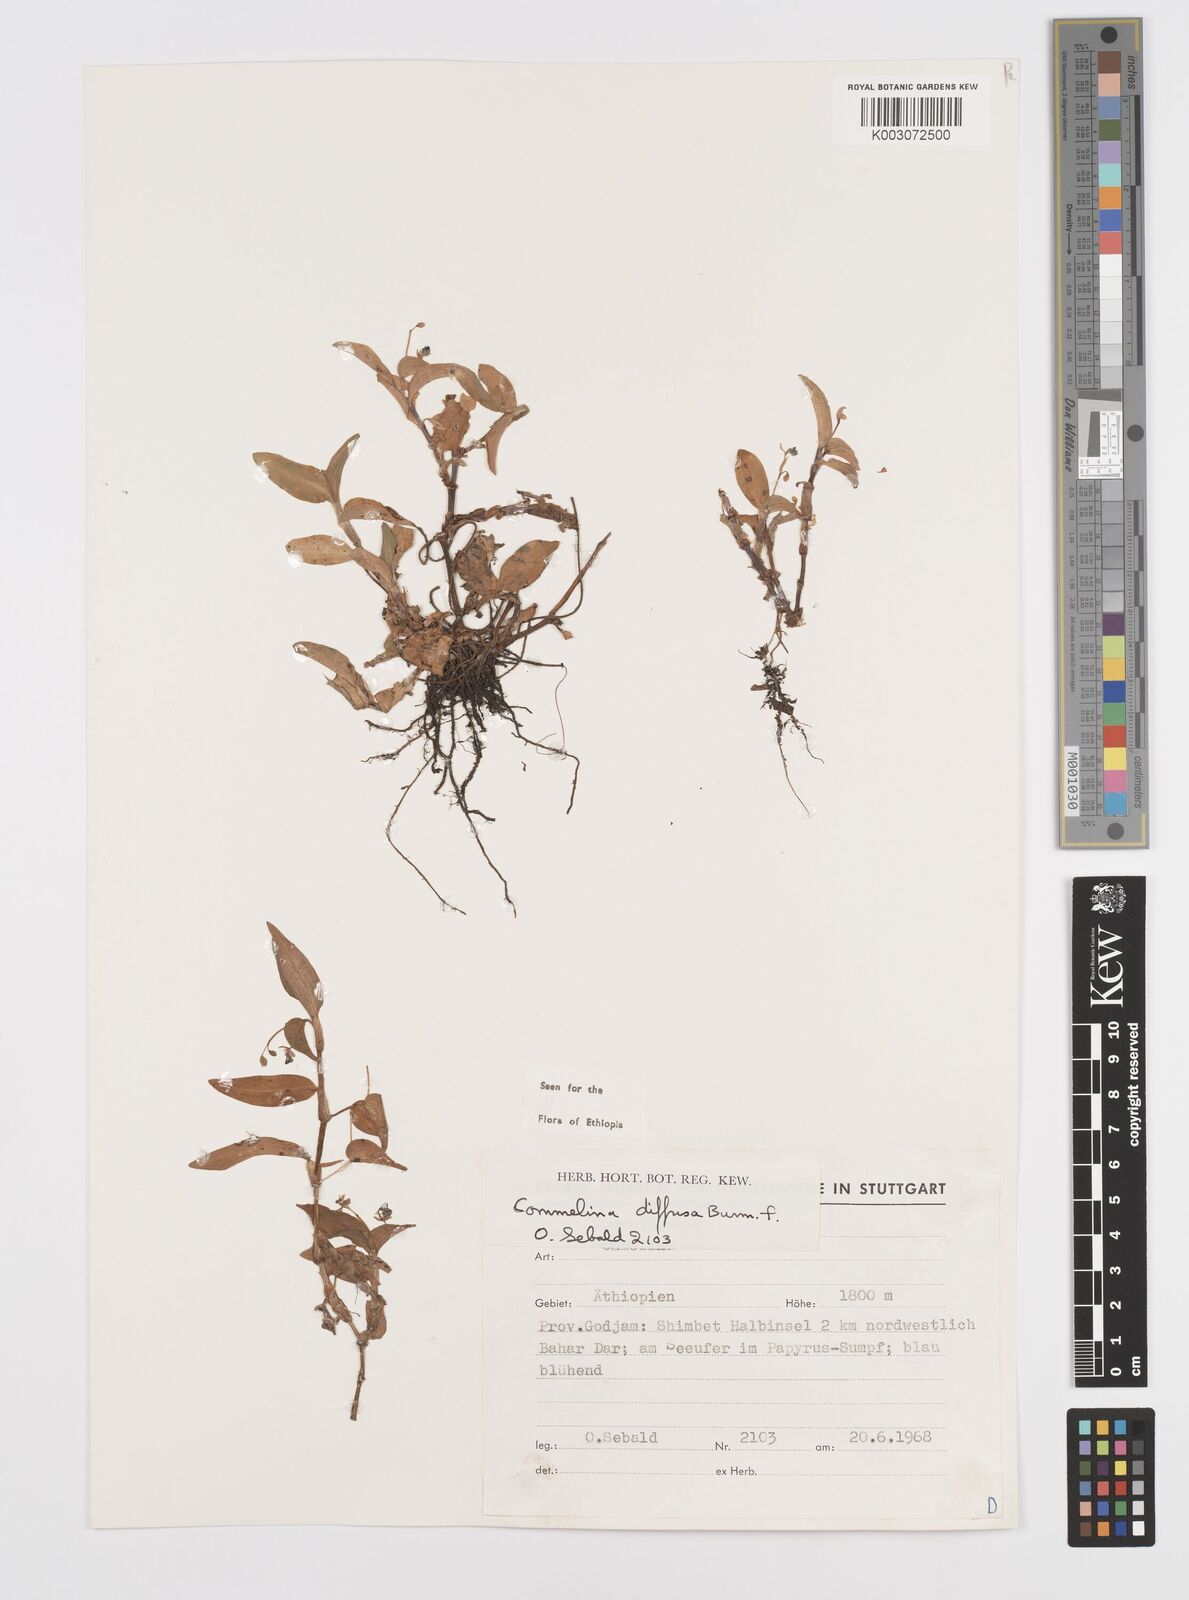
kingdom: Plantae
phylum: Tracheophyta
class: Liliopsida
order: Commelinales
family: Commelinaceae
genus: Commelina
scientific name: Commelina diffusa
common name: Climbing dayflower
